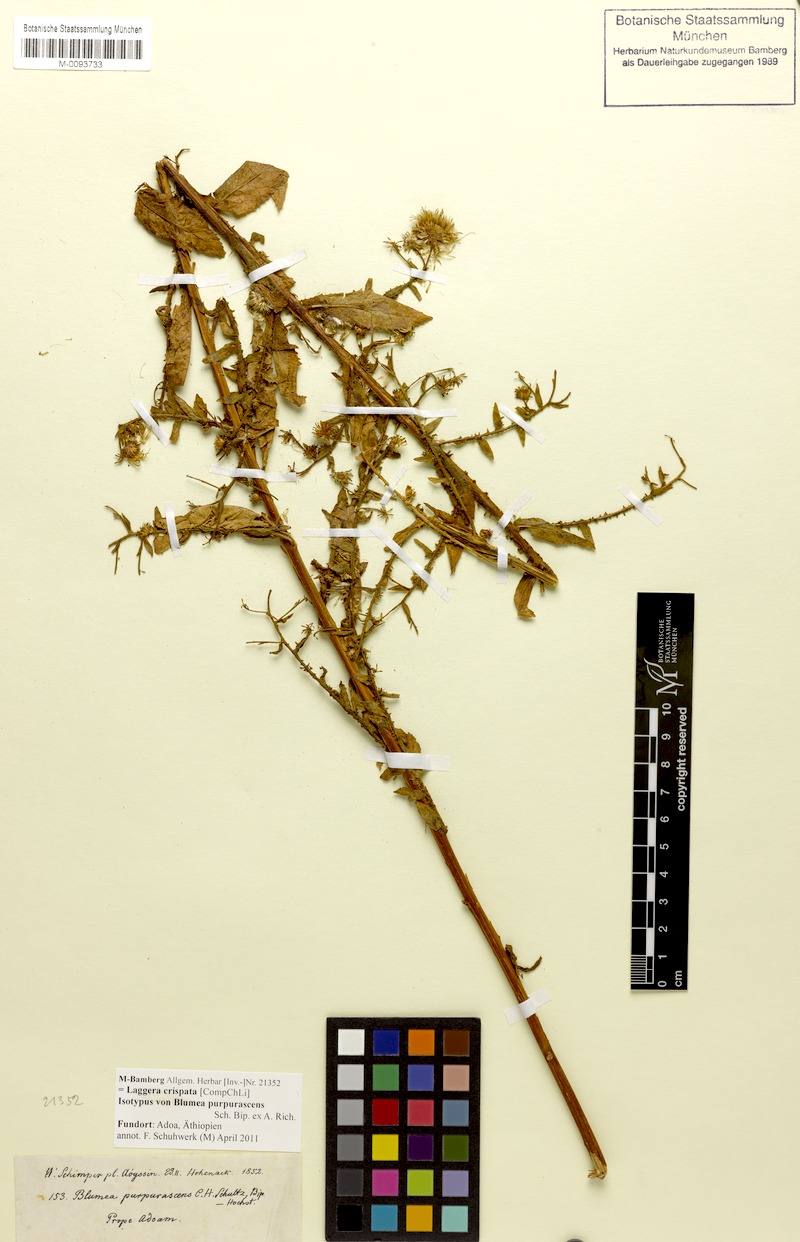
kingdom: Plantae
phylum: Tracheophyta
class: Magnoliopsida
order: Asterales
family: Asteraceae
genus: Laggera
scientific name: Laggera crispata
